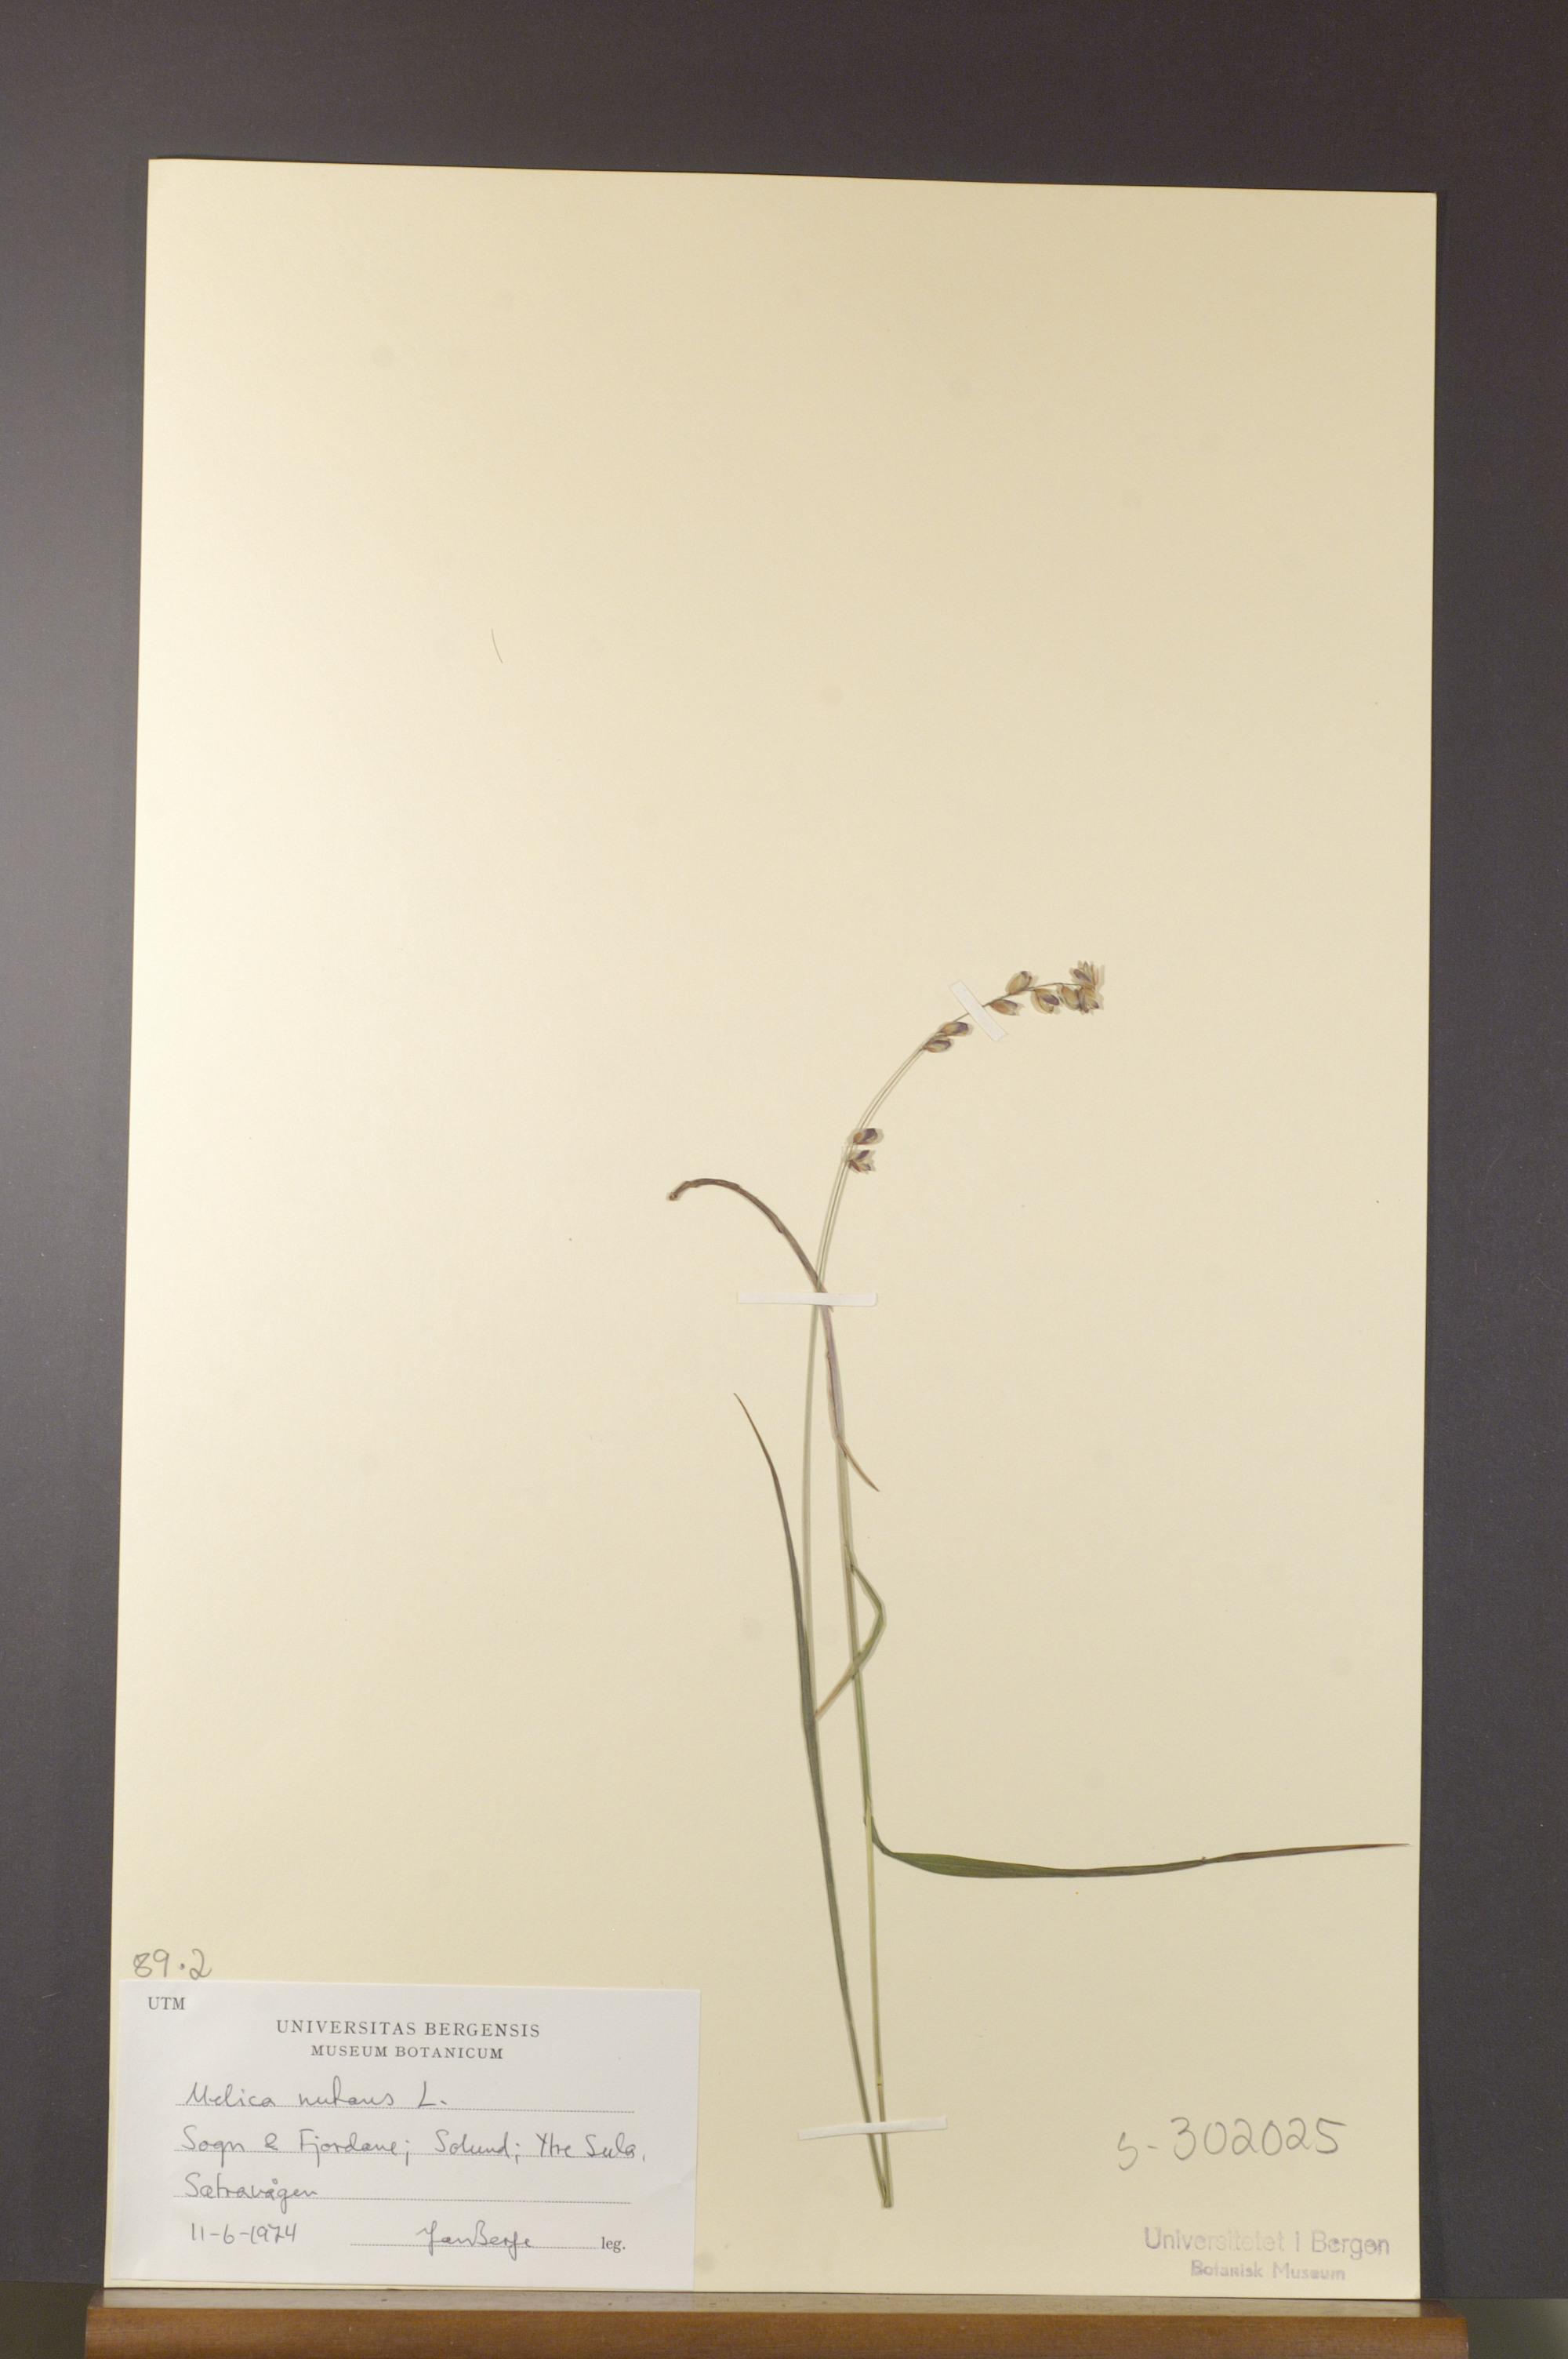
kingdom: Plantae
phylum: Tracheophyta
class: Liliopsida
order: Poales
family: Poaceae
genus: Melica
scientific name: Melica nutans
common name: Mountain melick
